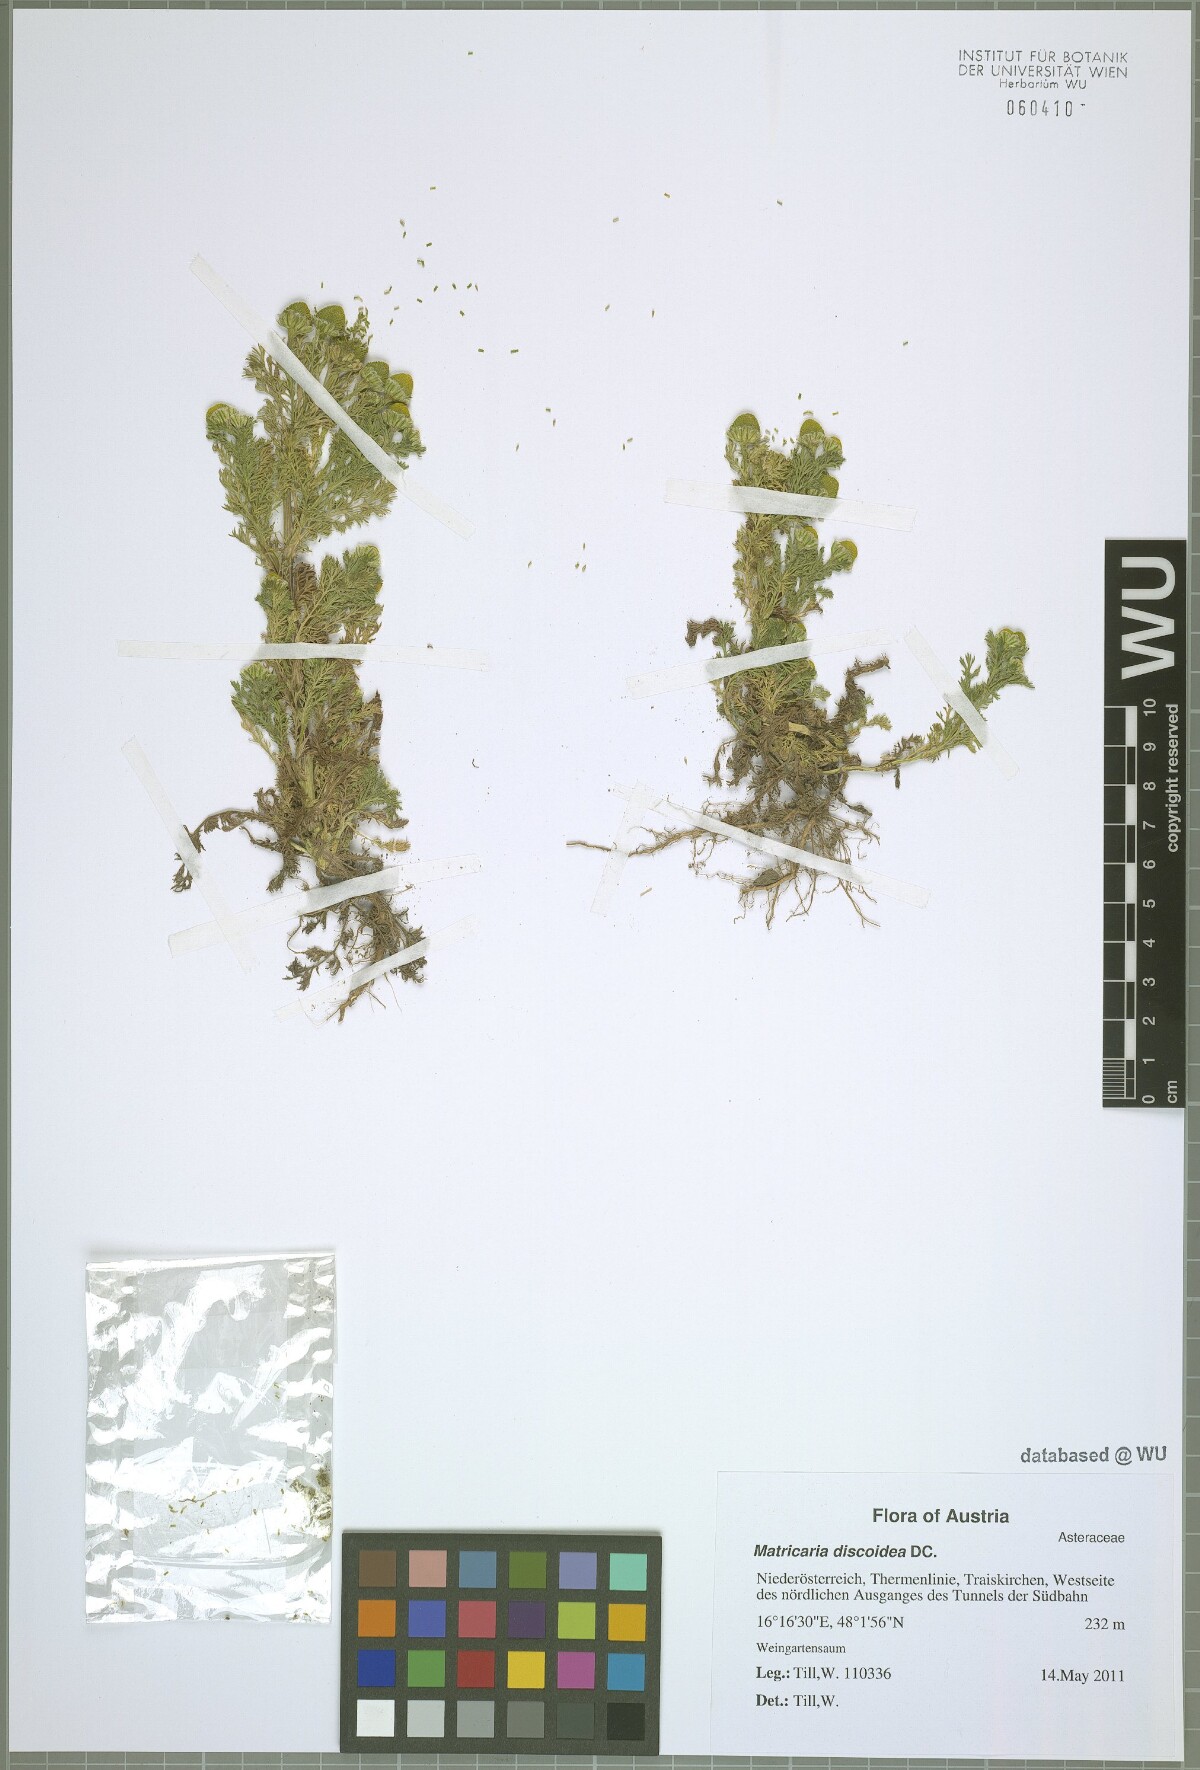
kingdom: Plantae
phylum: Tracheophyta
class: Magnoliopsida
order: Asterales
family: Asteraceae
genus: Matricaria
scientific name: Matricaria discoidea
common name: Disc mayweed
